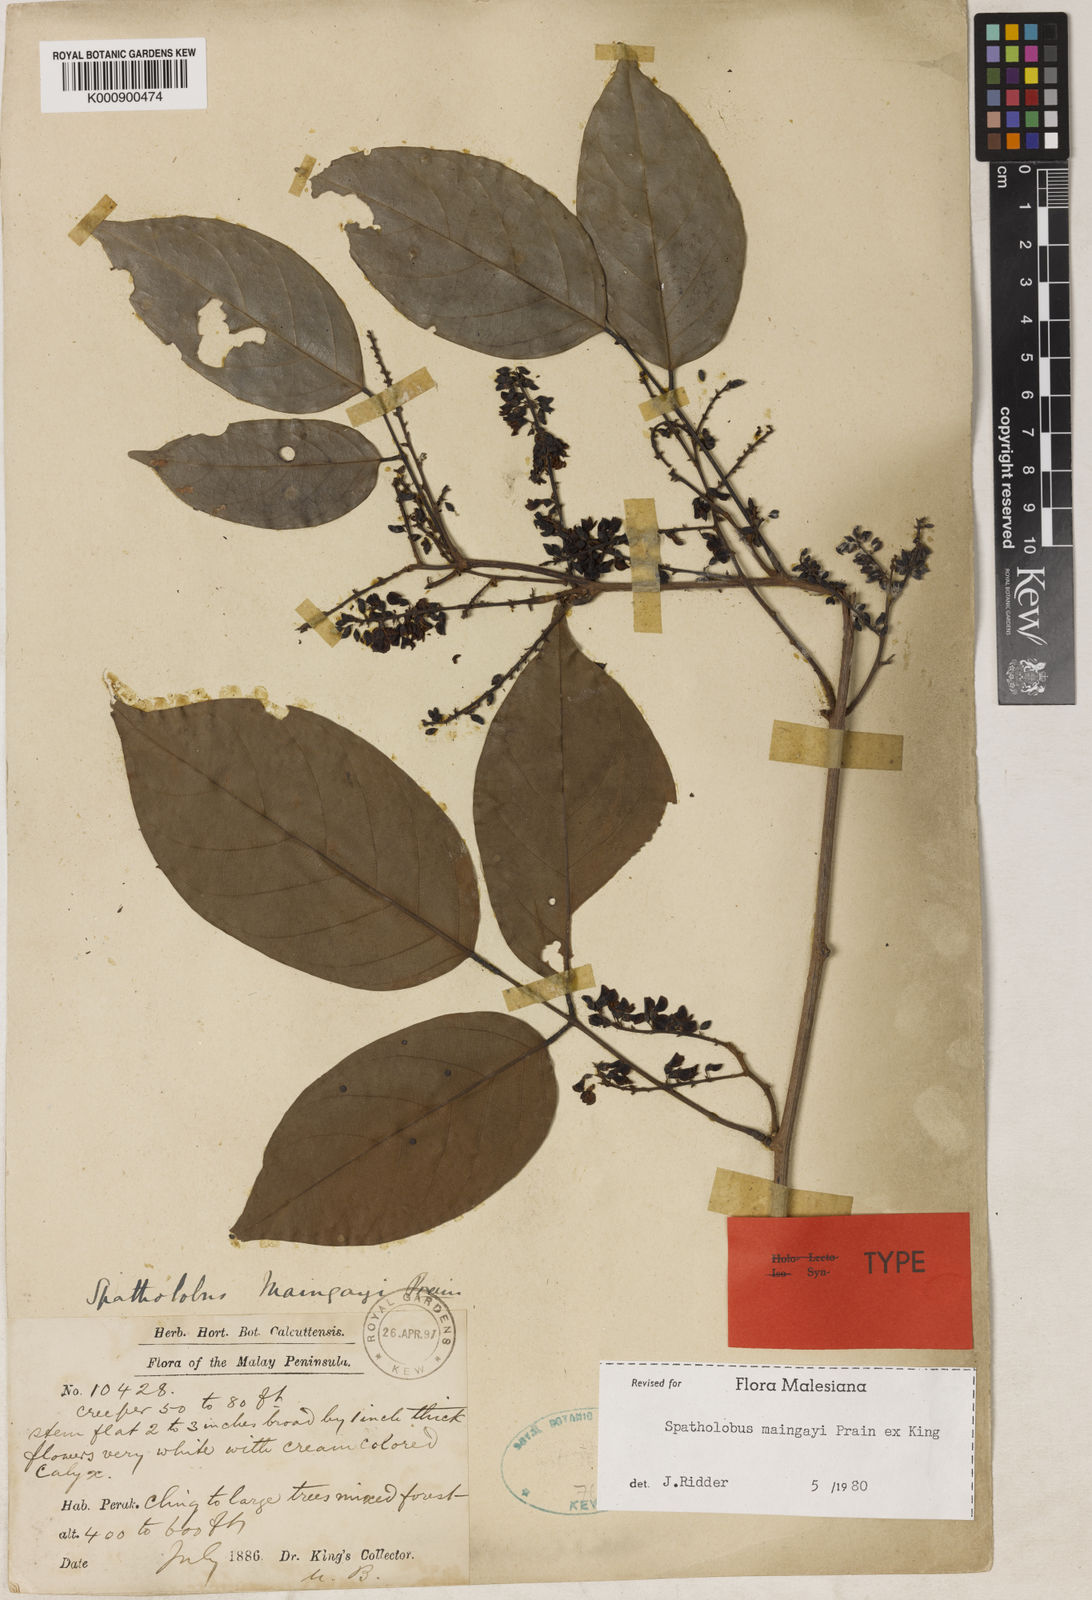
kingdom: Plantae
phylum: Tracheophyta
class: Magnoliopsida
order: Fabales
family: Fabaceae
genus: Spatholobus
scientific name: Spatholobus
